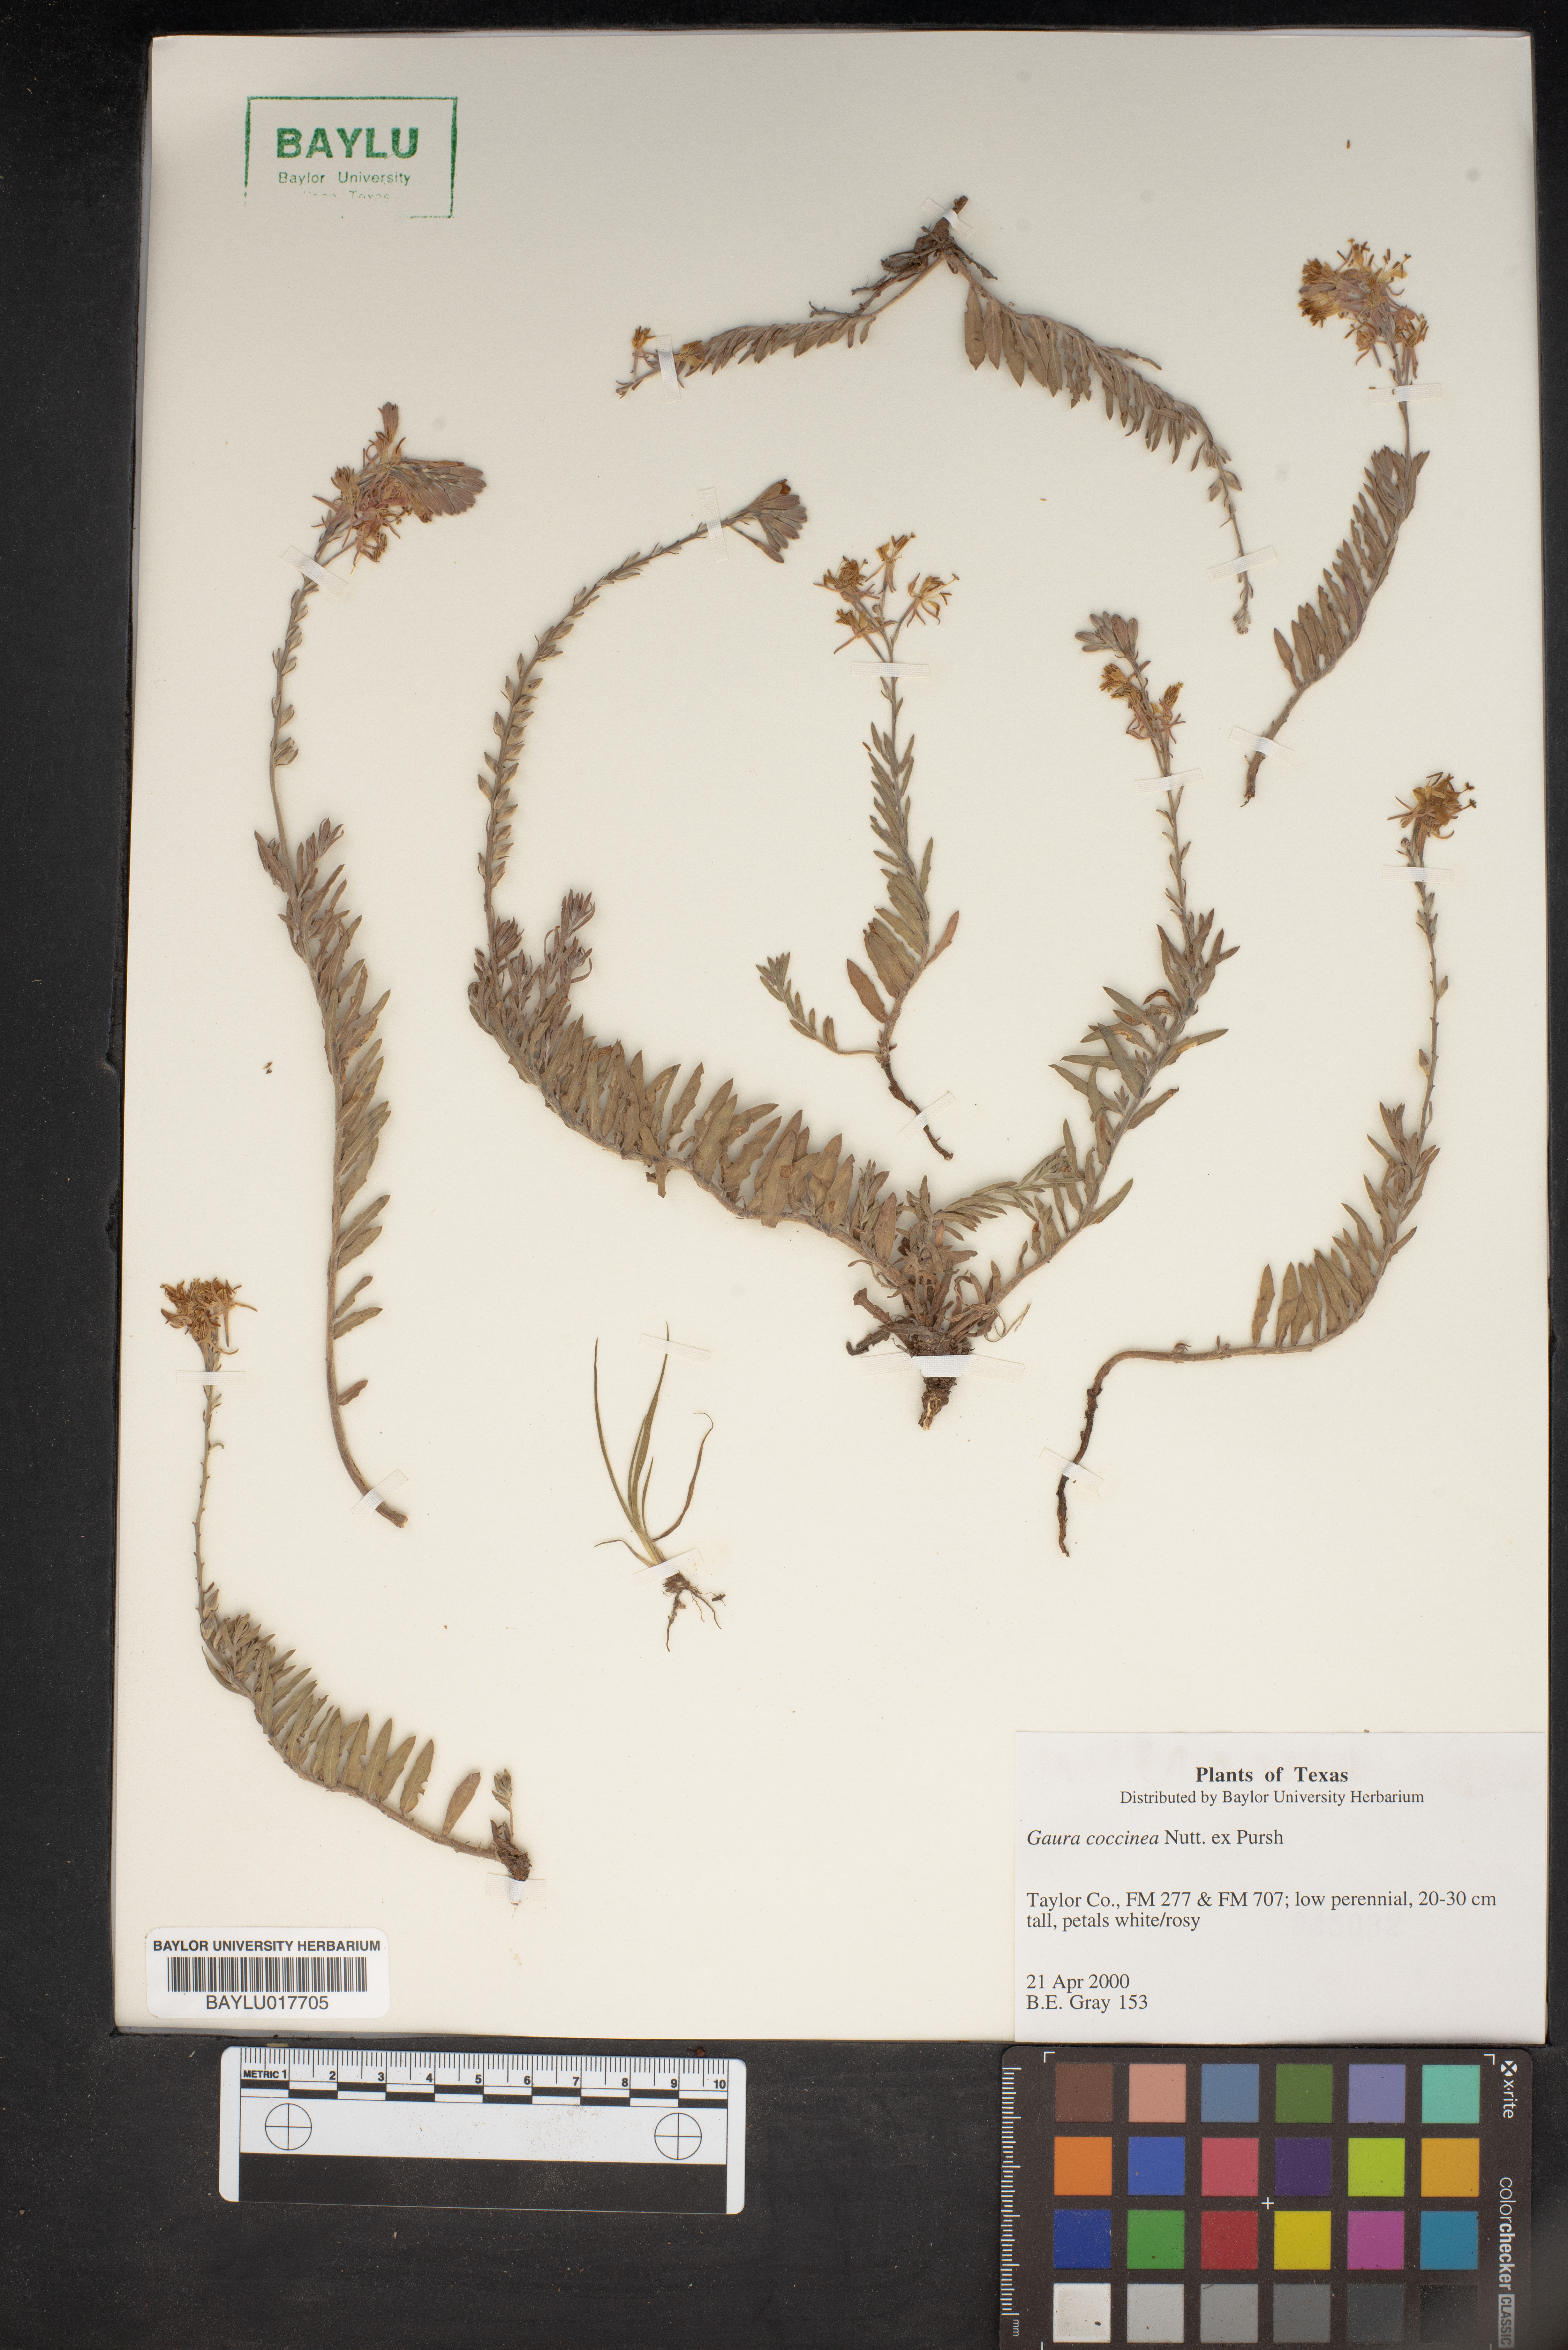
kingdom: Plantae
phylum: Tracheophyta
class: Magnoliopsida
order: Myrtales
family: Onagraceae
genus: Oenothera
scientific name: Oenothera suffrutescens
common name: Scarlet beeblossom
